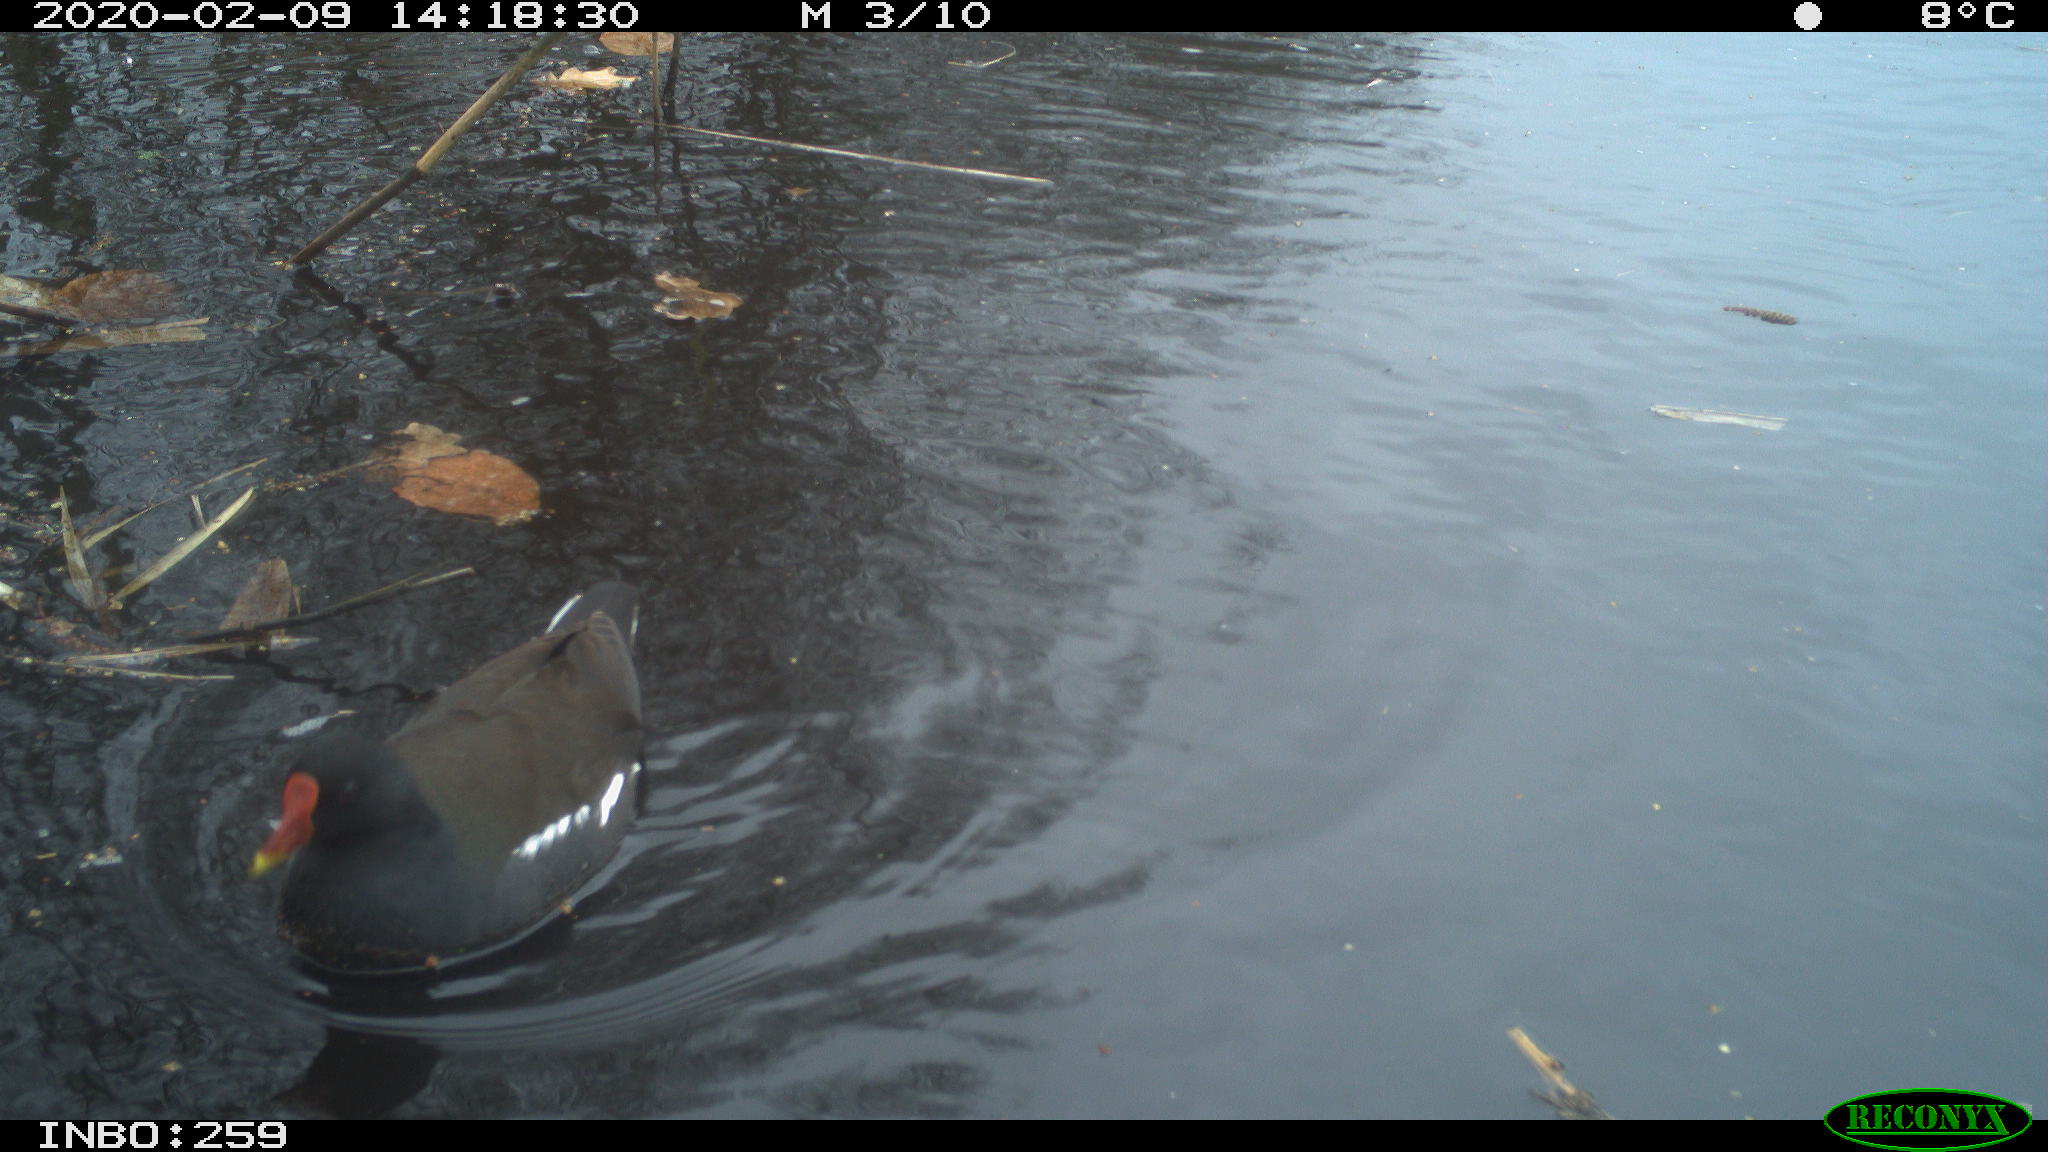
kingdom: Animalia
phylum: Chordata
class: Aves
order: Gruiformes
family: Rallidae
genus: Gallinula
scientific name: Gallinula chloropus
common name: Common moorhen
